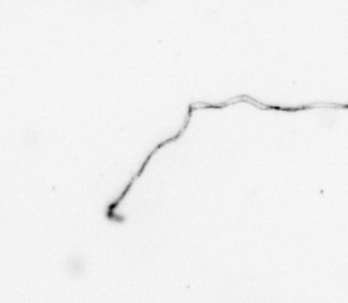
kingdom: Chromista
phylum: Ochrophyta
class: Bacillariophyceae
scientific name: Bacillariophyceae
